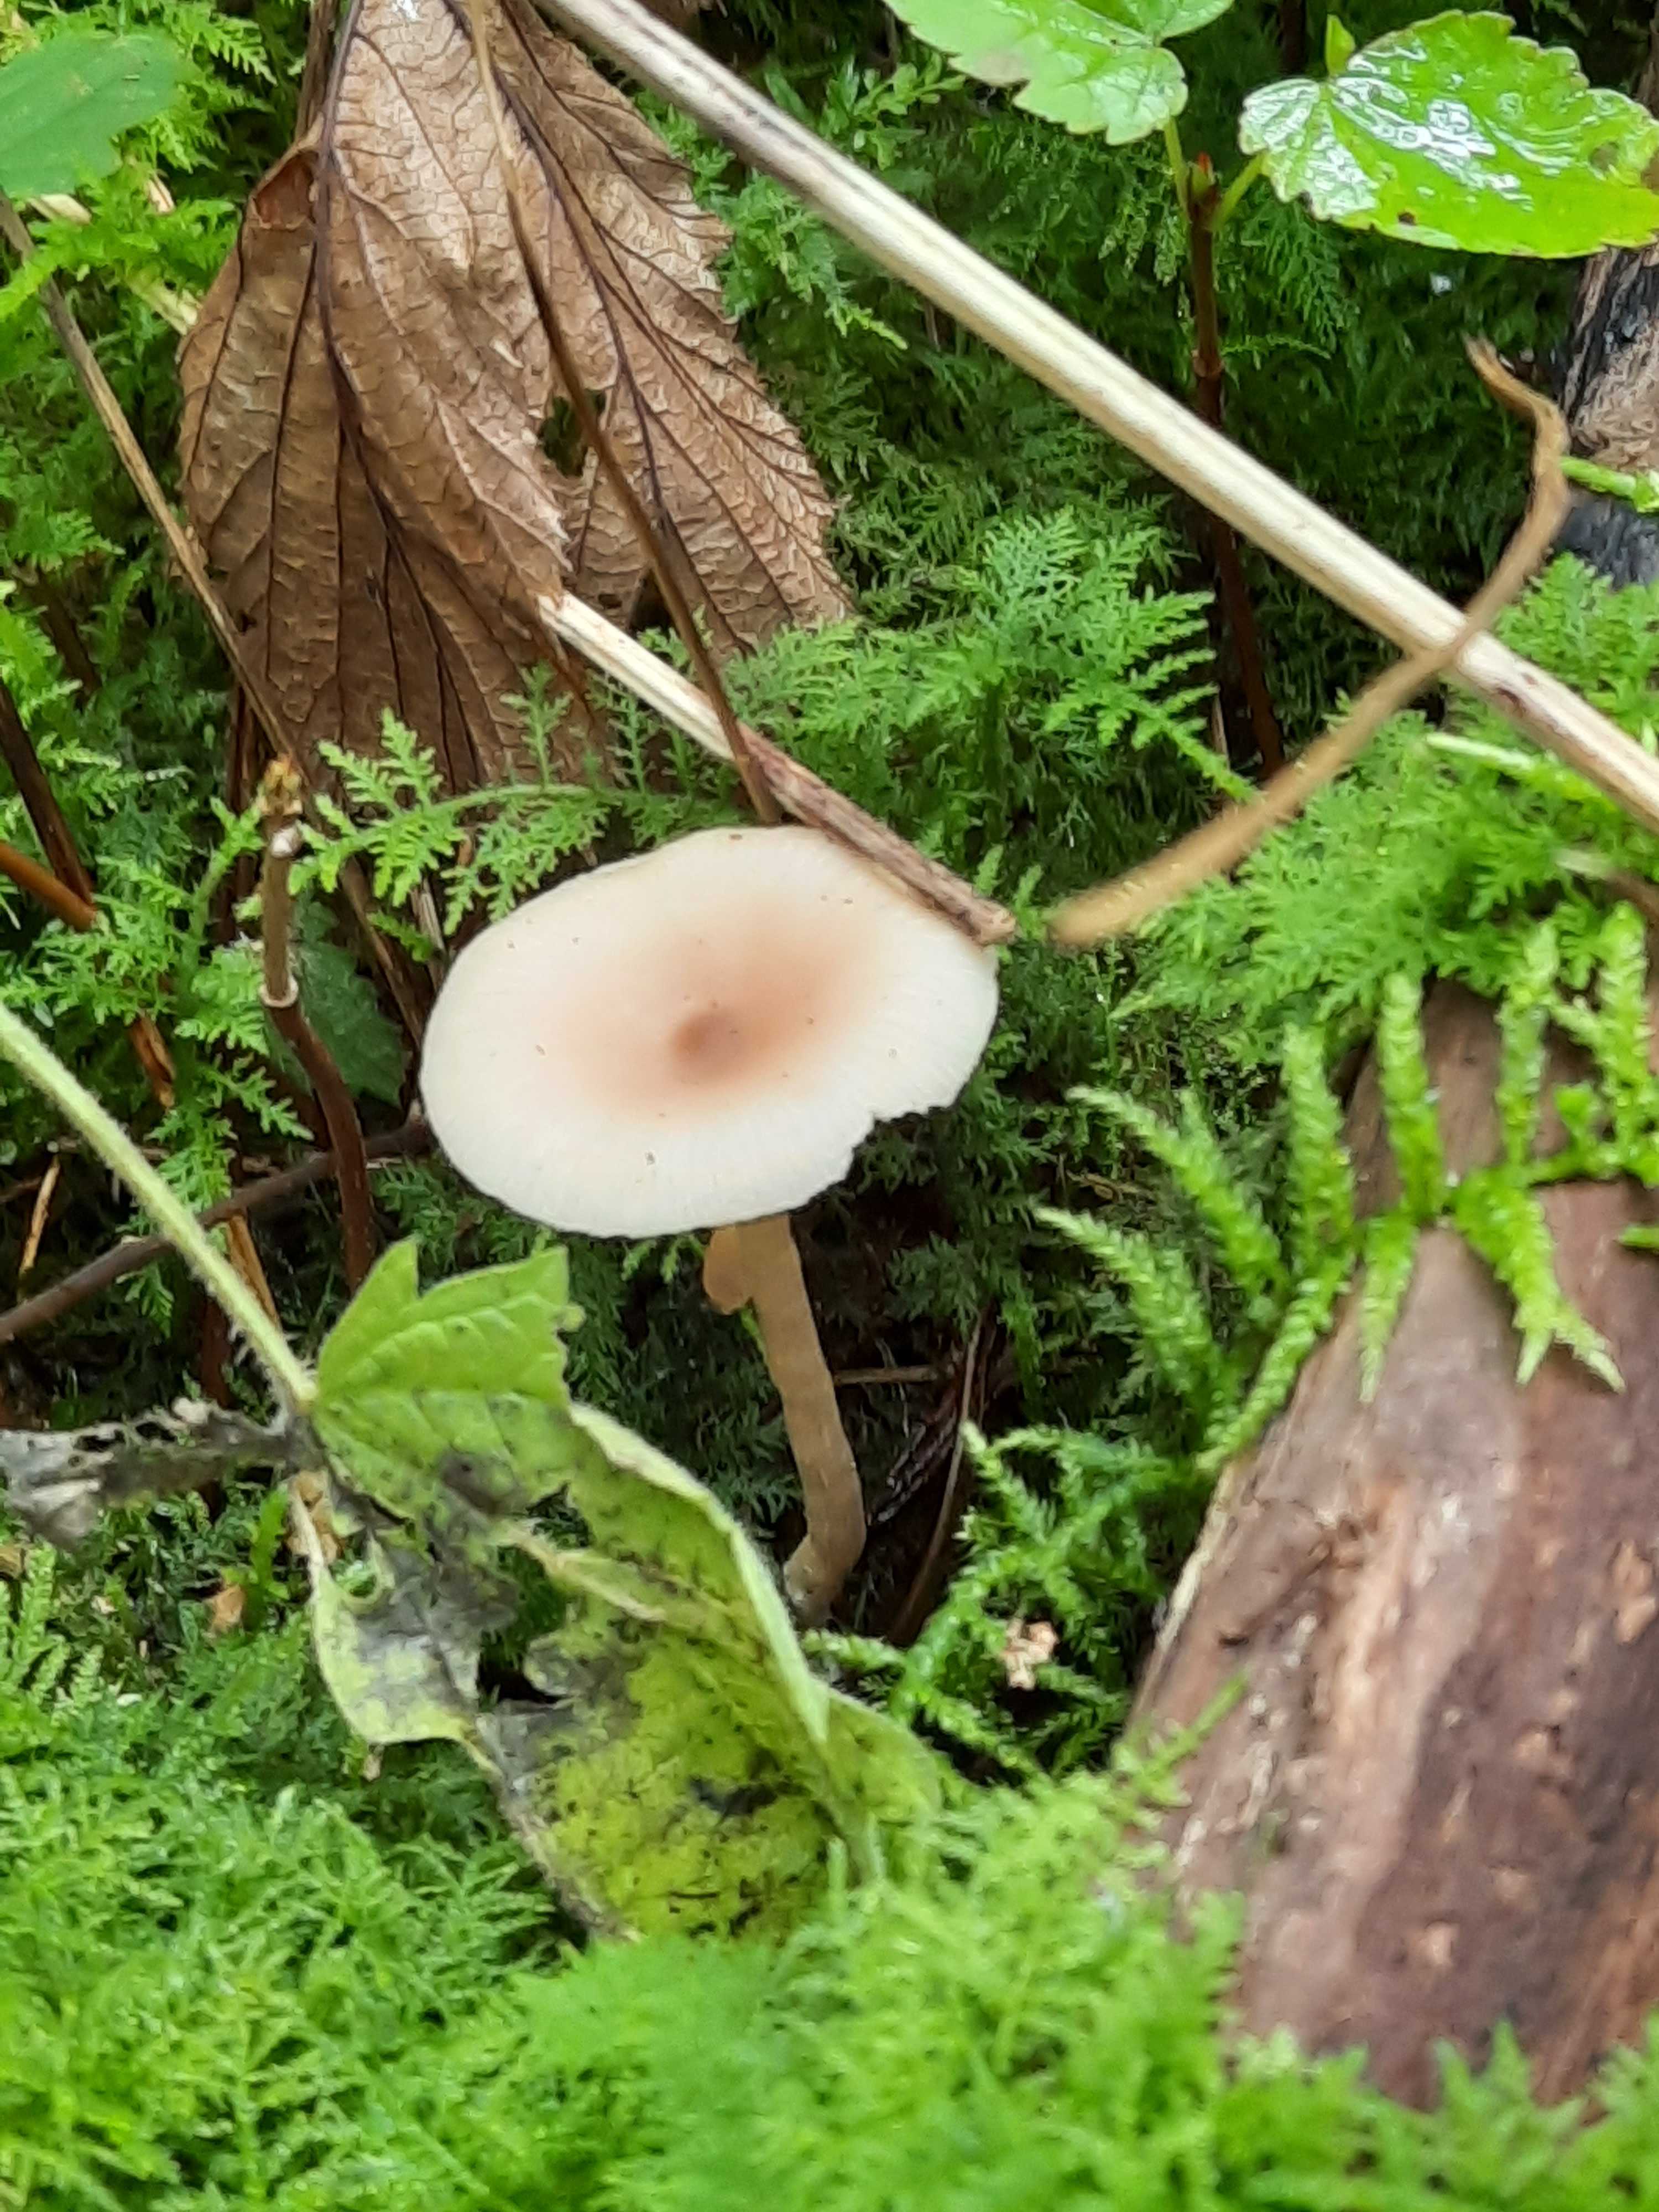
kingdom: Fungi
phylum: Basidiomycota
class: Agaricomycetes
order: Agaricales
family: Tricholomataceae
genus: Clitocybe
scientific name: Clitocybe fragrans
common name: vellugtende tragthat
